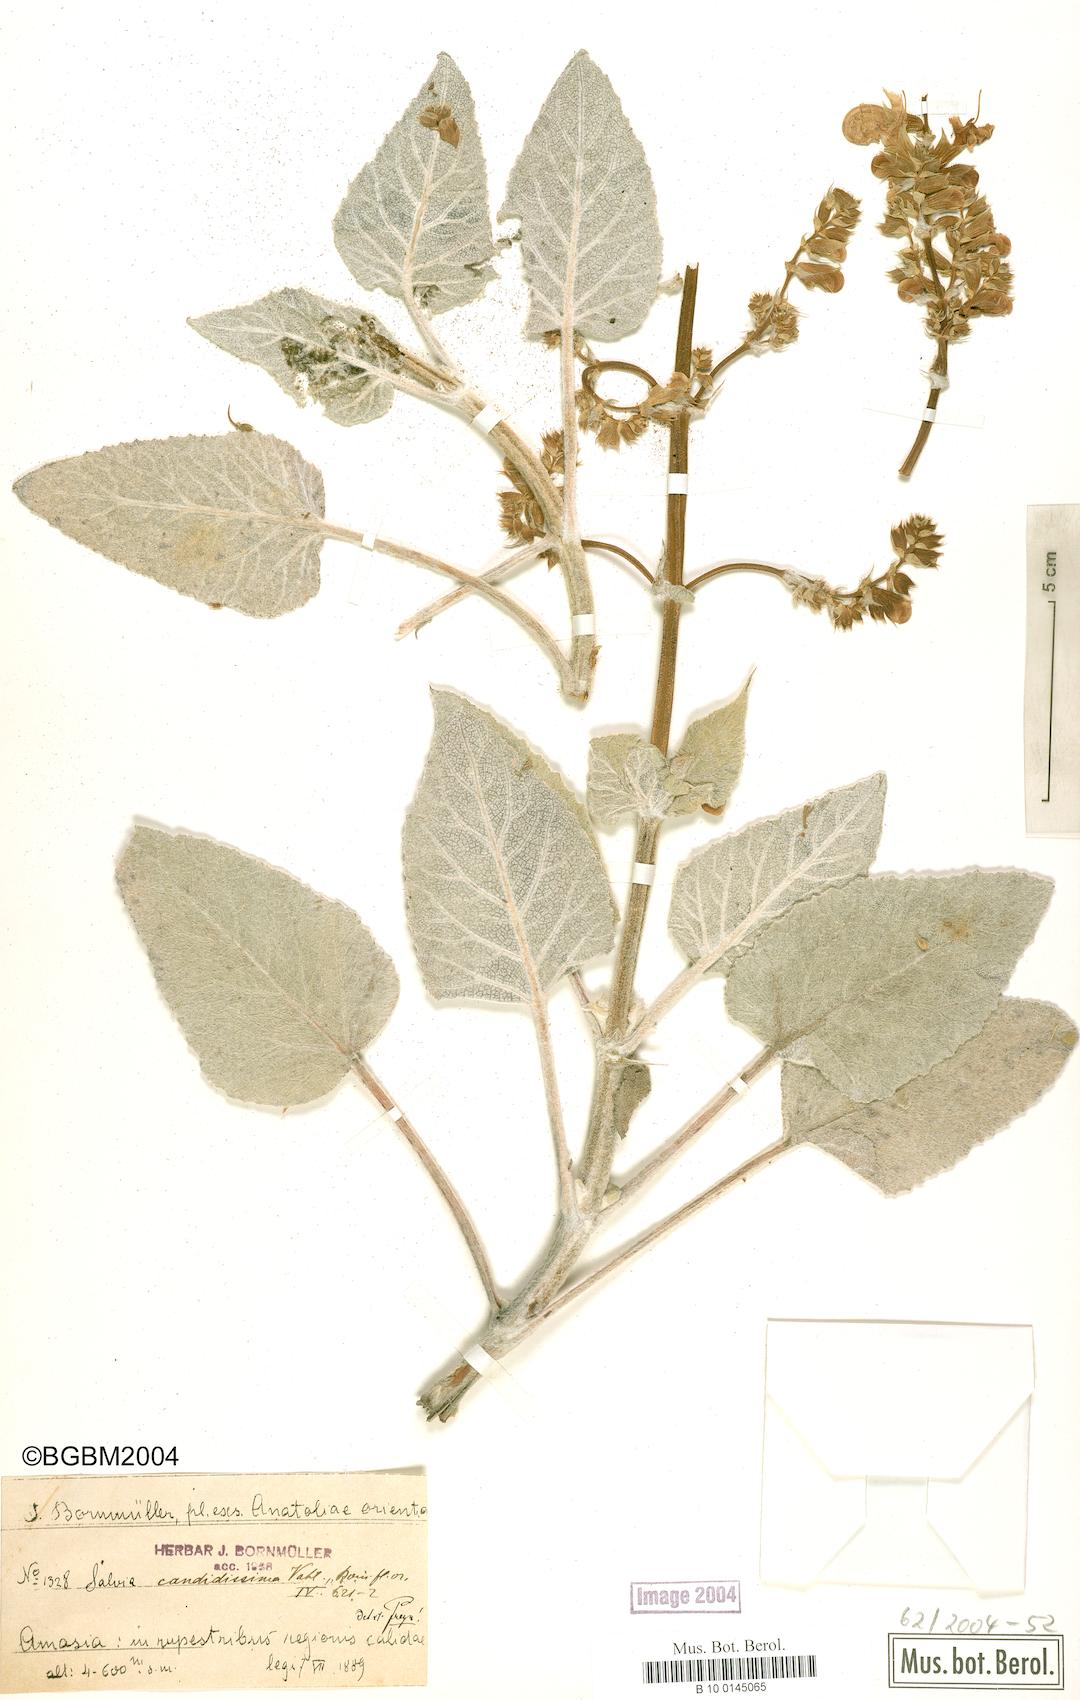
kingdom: Plantae
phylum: Tracheophyta
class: Magnoliopsida
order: Lamiales
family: Lamiaceae
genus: Salvia
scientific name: Salvia candidissima
